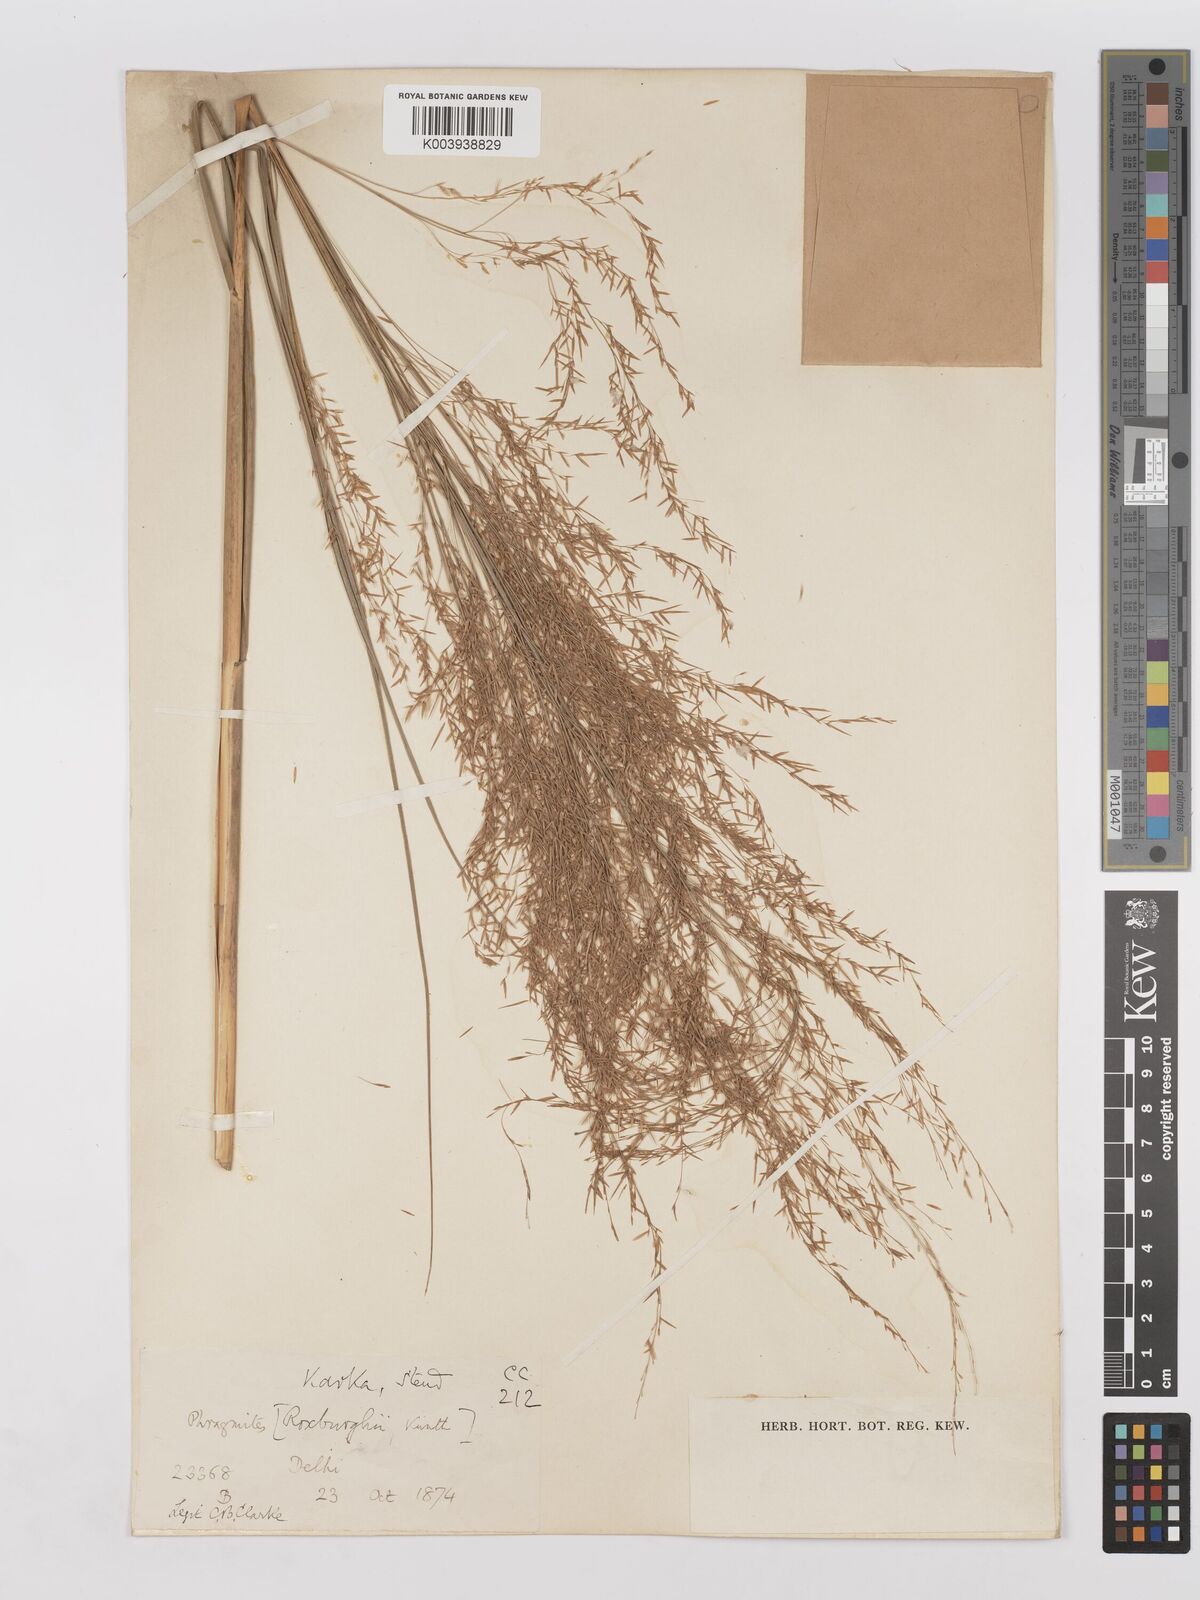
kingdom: Plantae
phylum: Tracheophyta
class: Liliopsida
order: Poales
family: Poaceae
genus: Phragmites
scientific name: Phragmites karka
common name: Tropical reed
